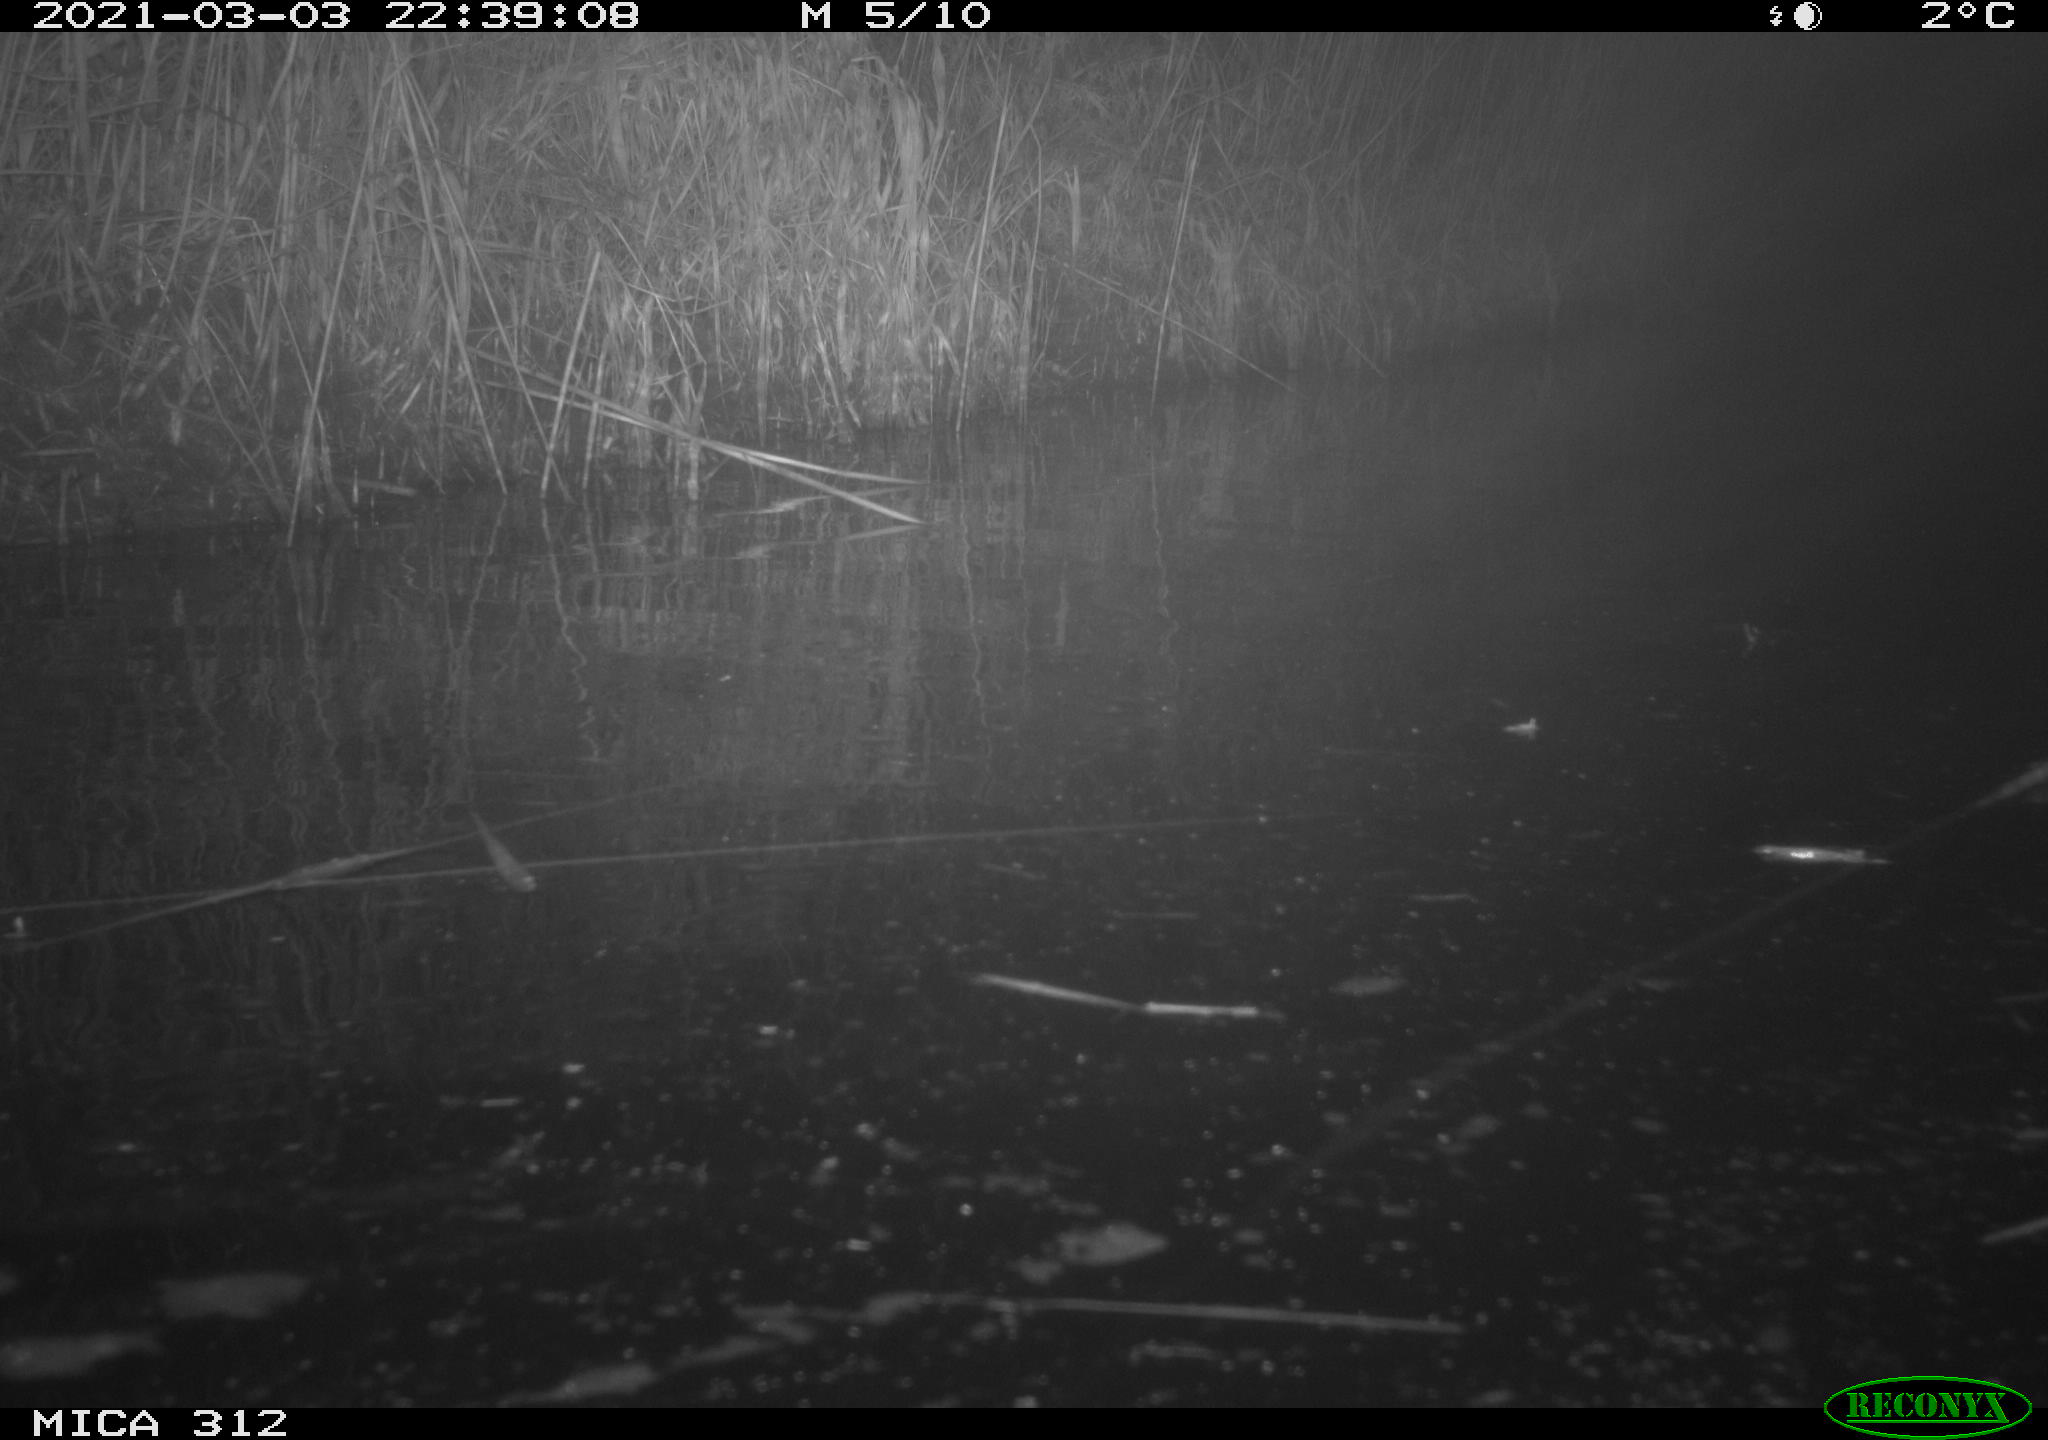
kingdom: Animalia
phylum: Chordata
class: Mammalia
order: Rodentia
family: Muridae
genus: Rattus
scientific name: Rattus norvegicus
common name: Brown rat
